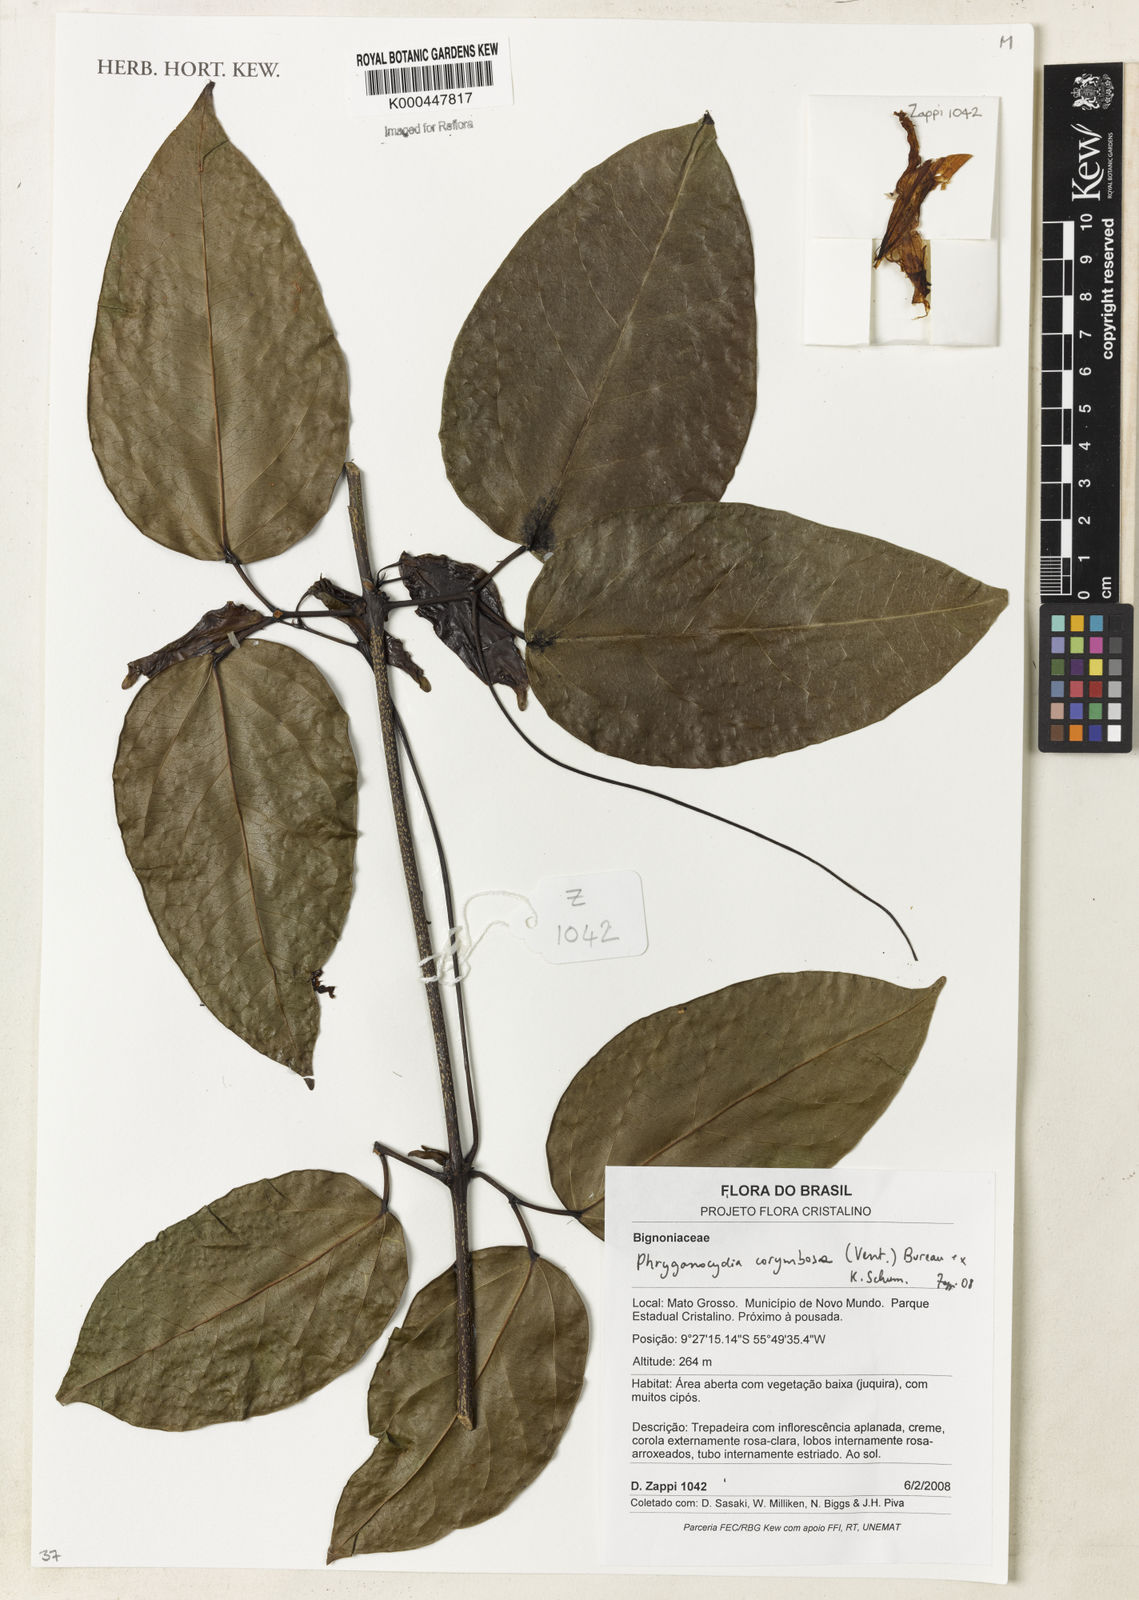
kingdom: Plantae
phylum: Tracheophyta
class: Magnoliopsida
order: Lamiales
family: Bignoniaceae
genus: Bignonia
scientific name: Bignonia corymbosa
